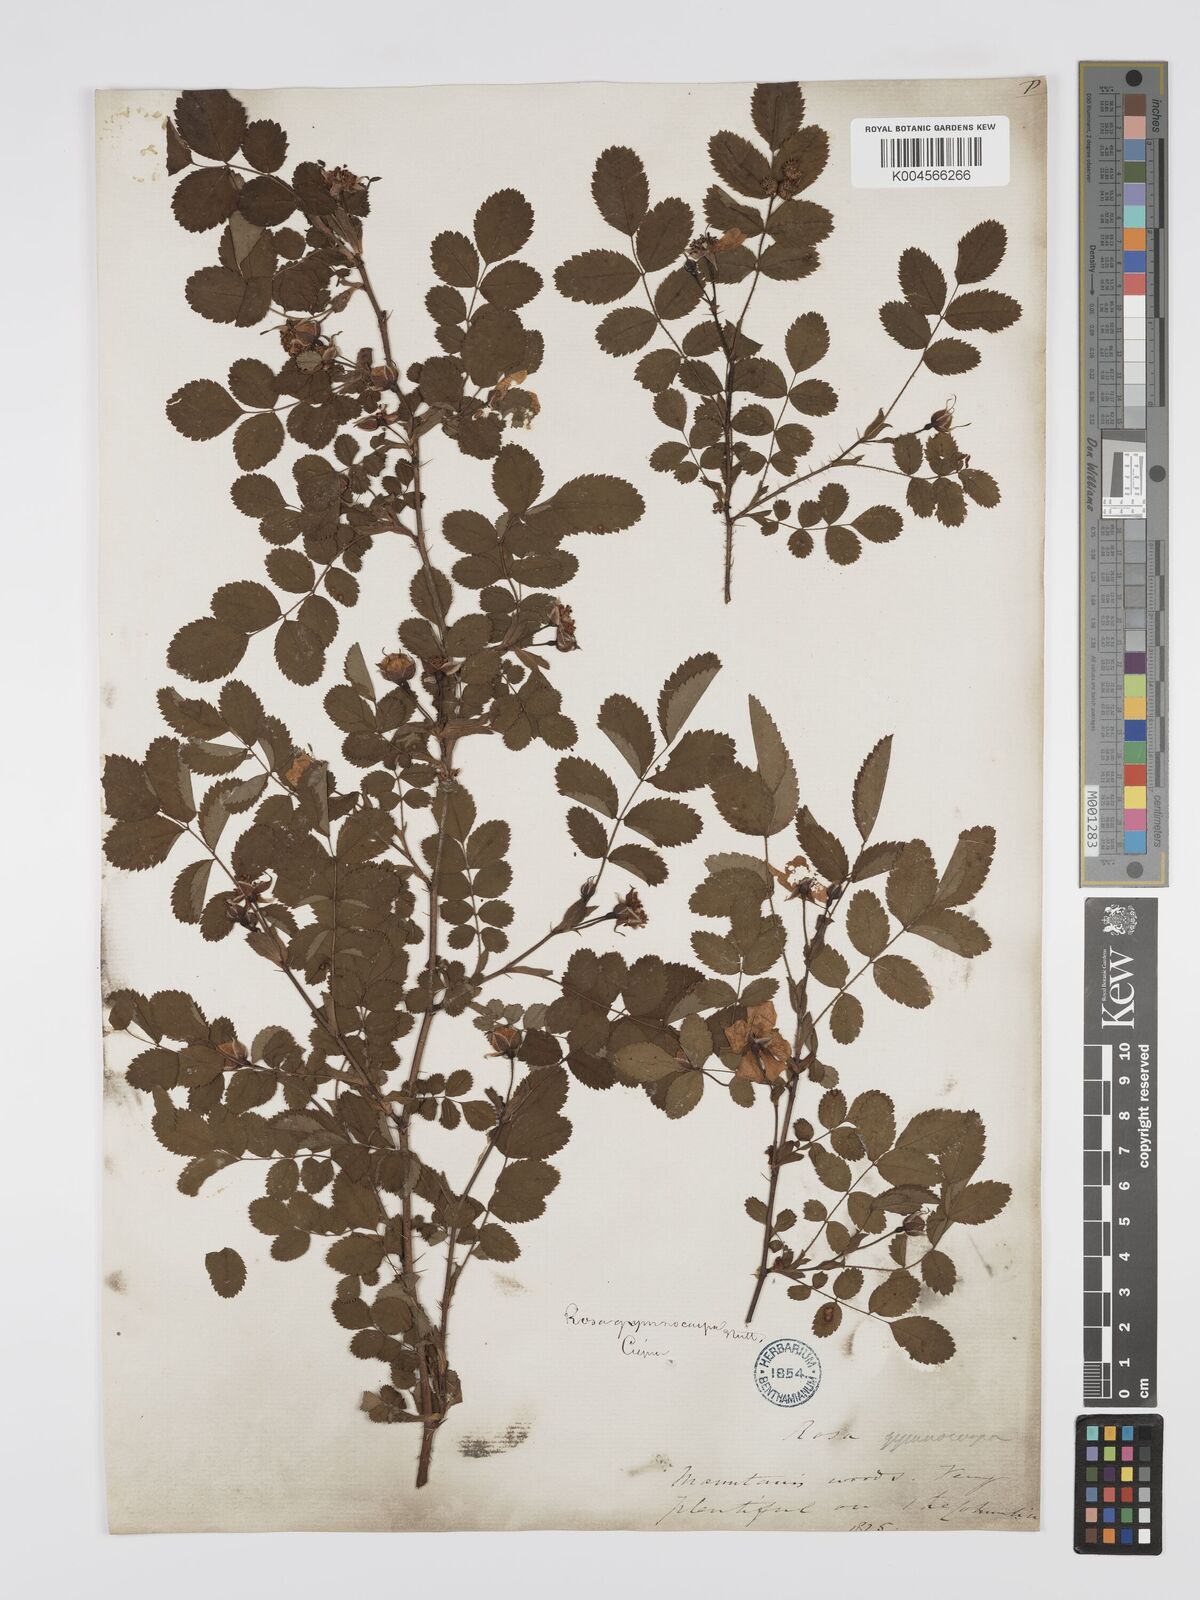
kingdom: Plantae
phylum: Tracheophyta
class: Magnoliopsida
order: Rosales
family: Rosaceae
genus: Rosa
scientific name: Rosa gymnocarpa
